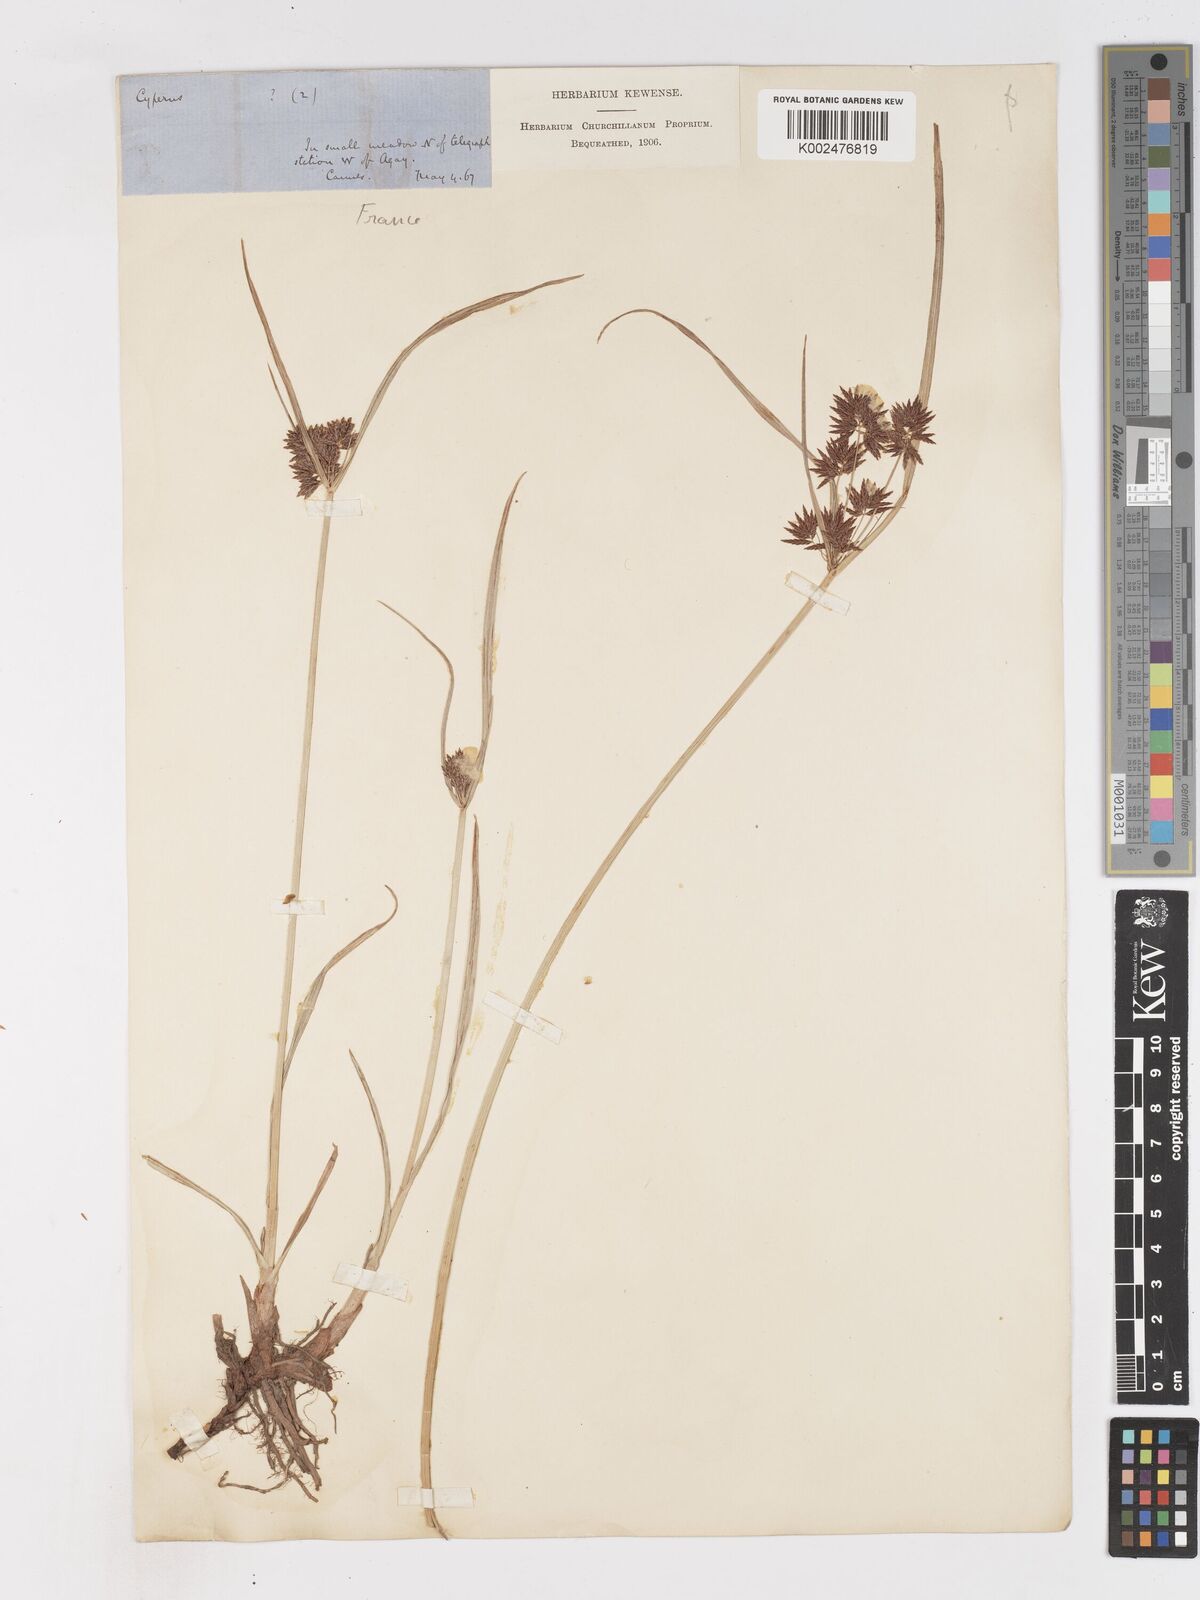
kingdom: Plantae
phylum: Tracheophyta
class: Liliopsida
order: Poales
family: Cyperaceae
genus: Cyperus
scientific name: Cyperus longus
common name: Galingale
